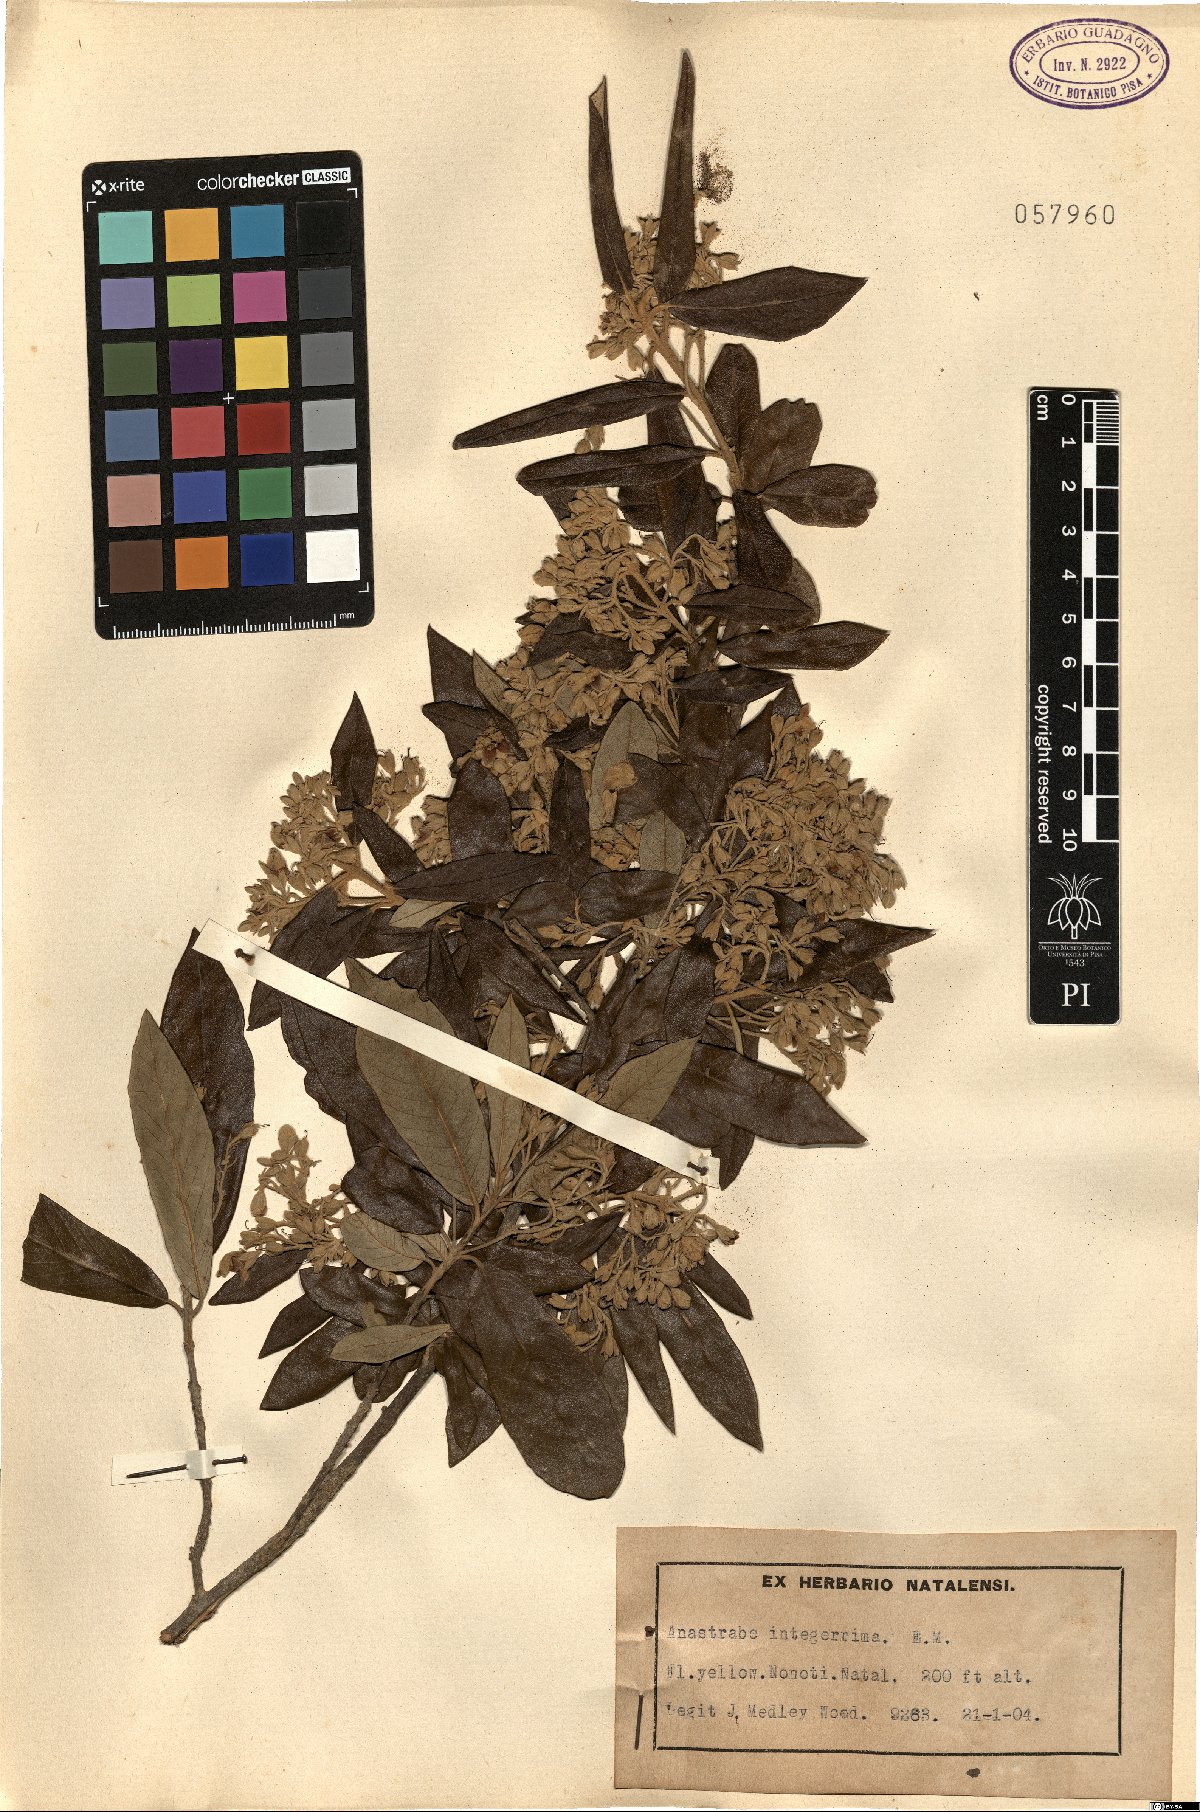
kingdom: Plantae
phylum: Tracheophyta
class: Magnoliopsida
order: Lamiales
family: Stilbaceae
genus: Anastrabe
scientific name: Anastrabe integerrima
